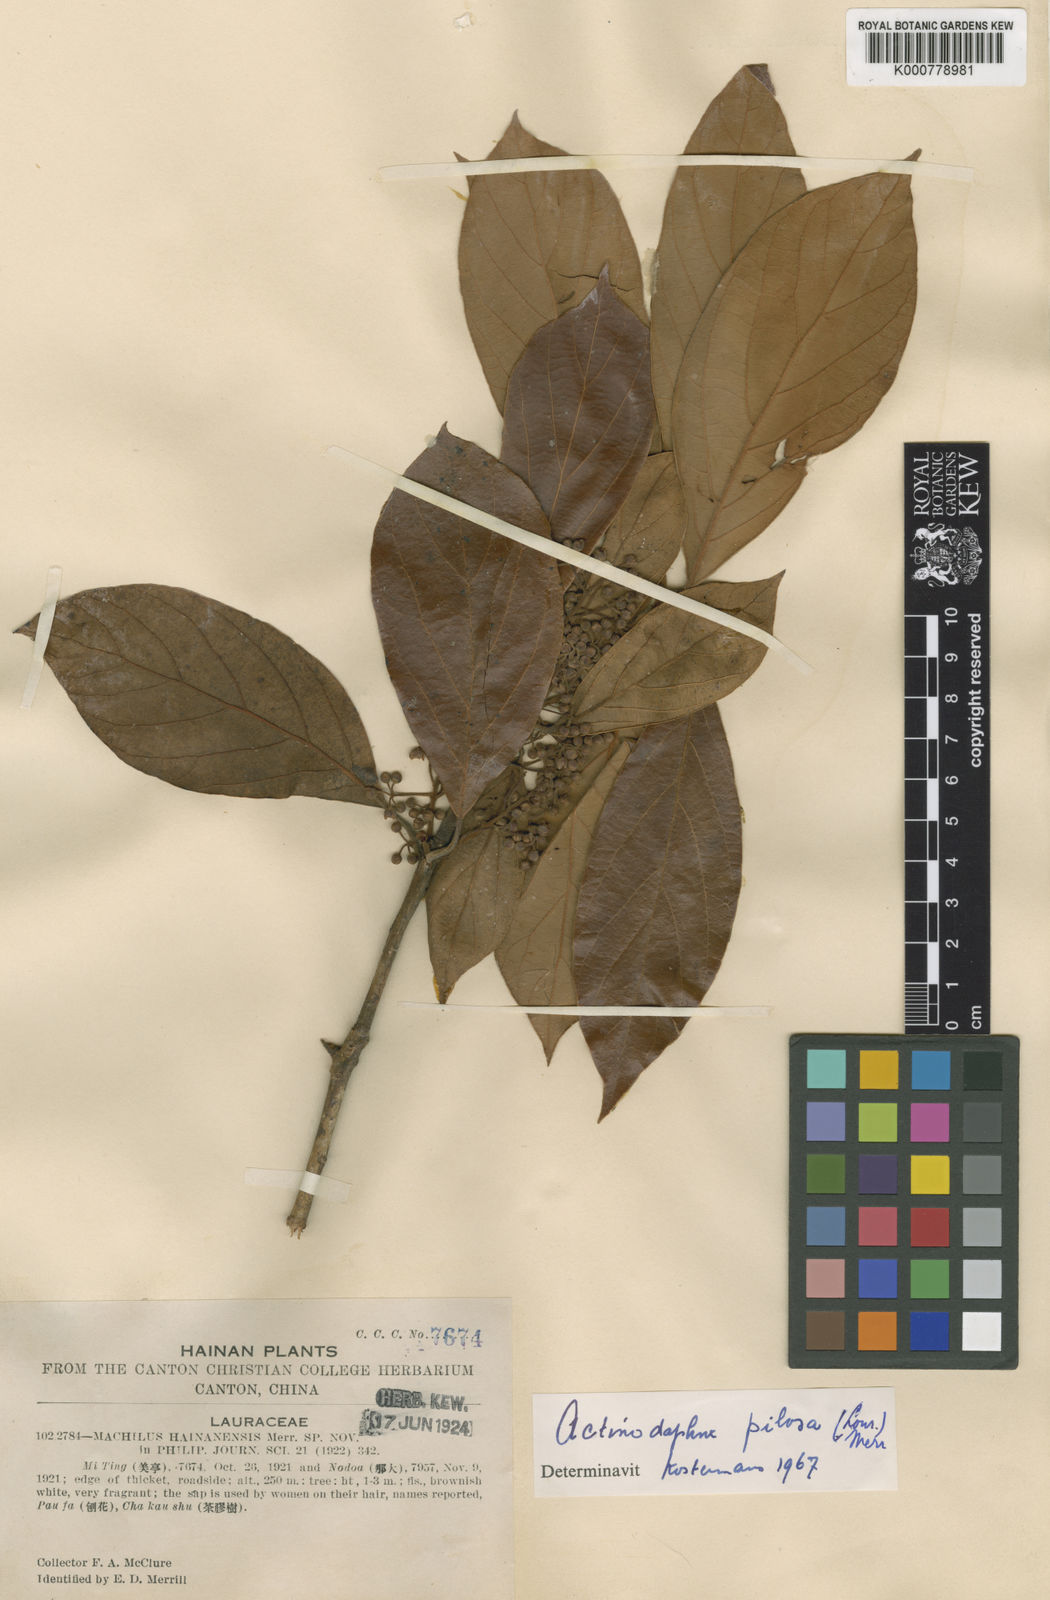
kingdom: Plantae
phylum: Tracheophyta
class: Magnoliopsida
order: Laurales
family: Lauraceae
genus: Actinodaphne
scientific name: Actinodaphne
